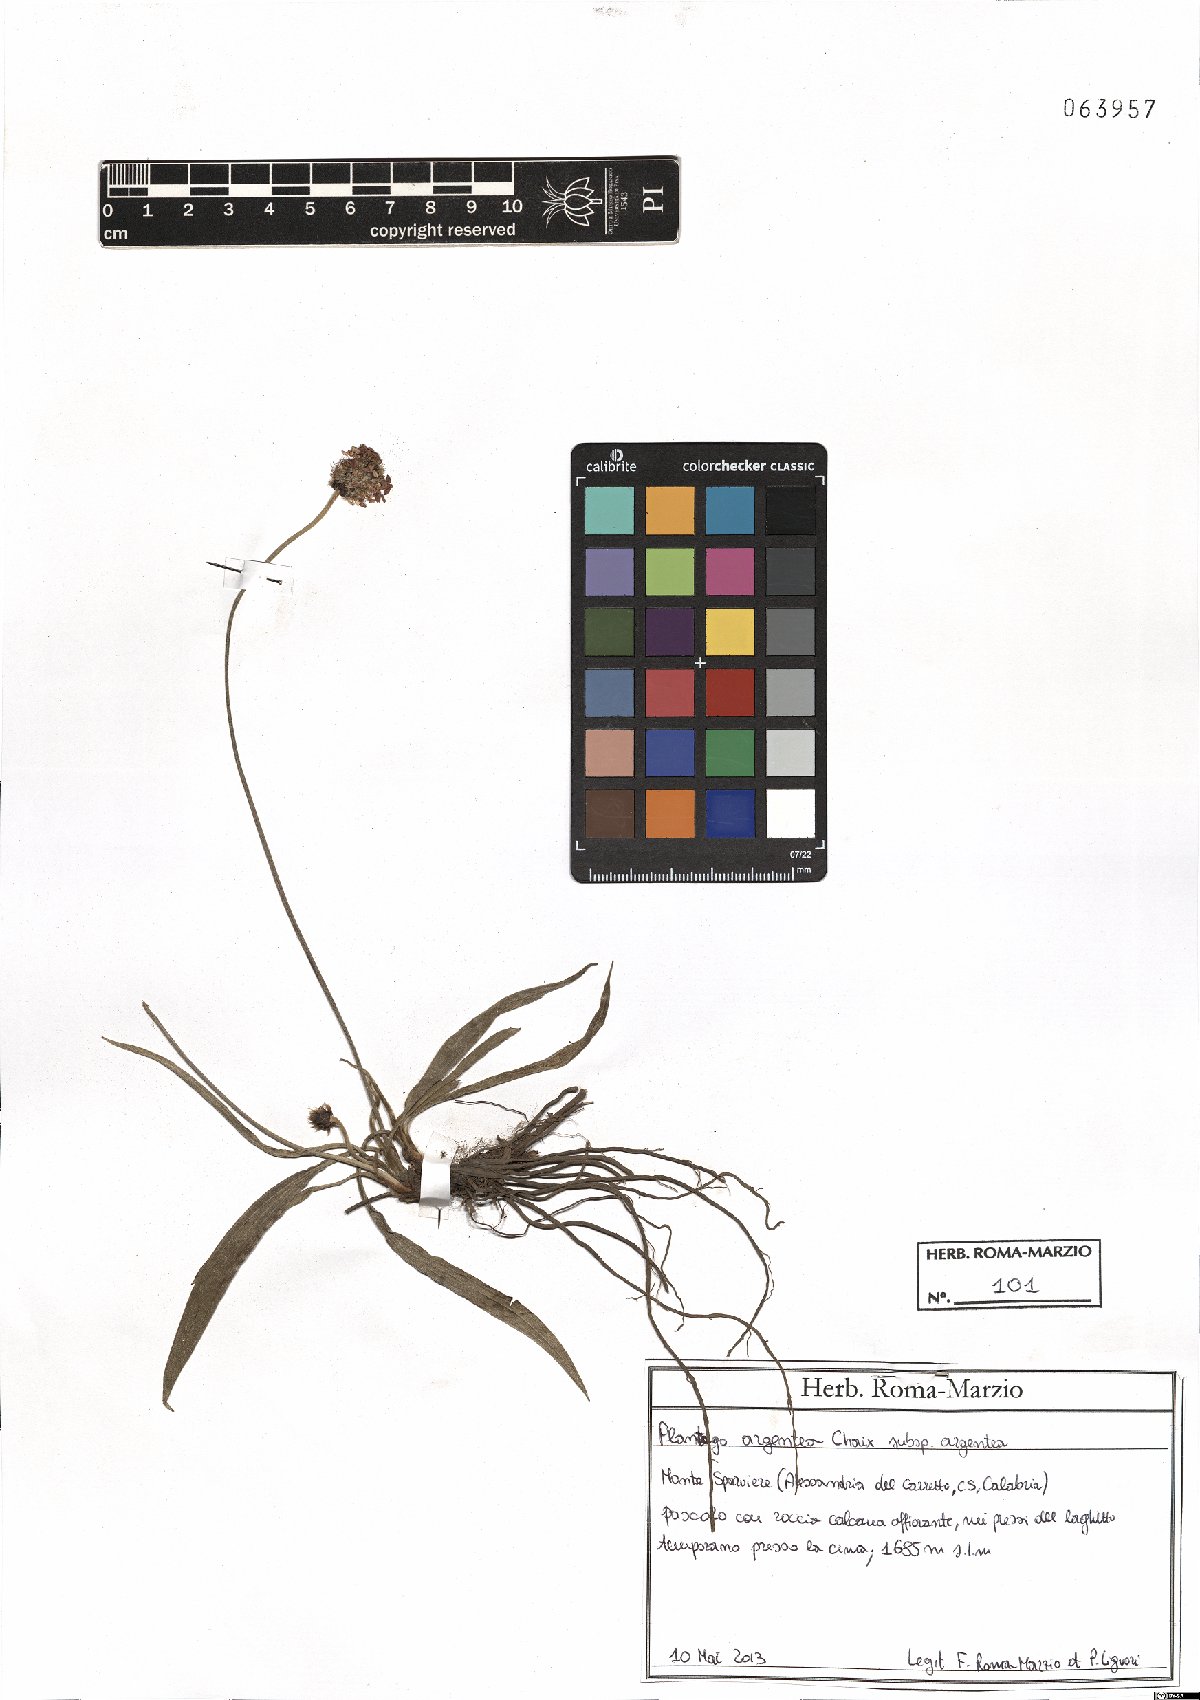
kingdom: Plantae
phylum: Tracheophyta
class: Magnoliopsida
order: Lamiales
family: Plantaginaceae
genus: Plantago
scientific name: Plantago argentea
